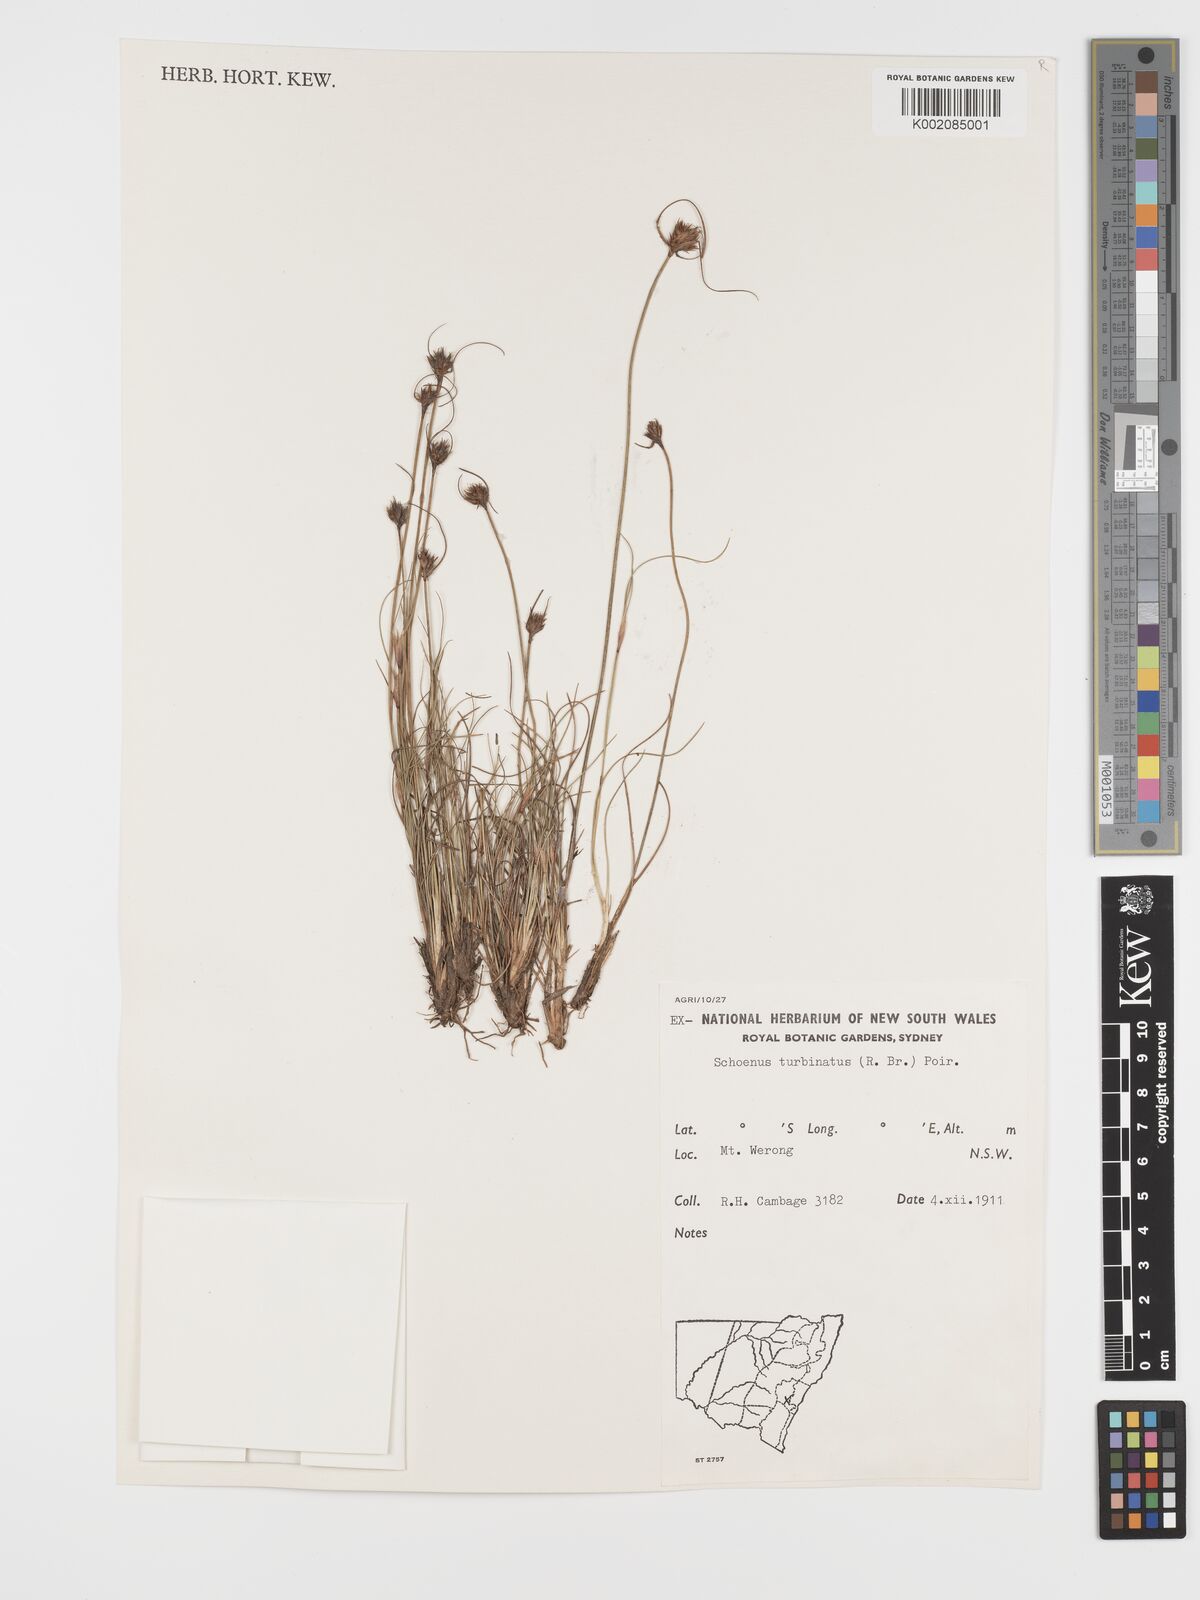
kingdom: Plantae
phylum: Tracheophyta
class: Liliopsida
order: Poales
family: Cyperaceae
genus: Schoenus
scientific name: Schoenus turbinatus
